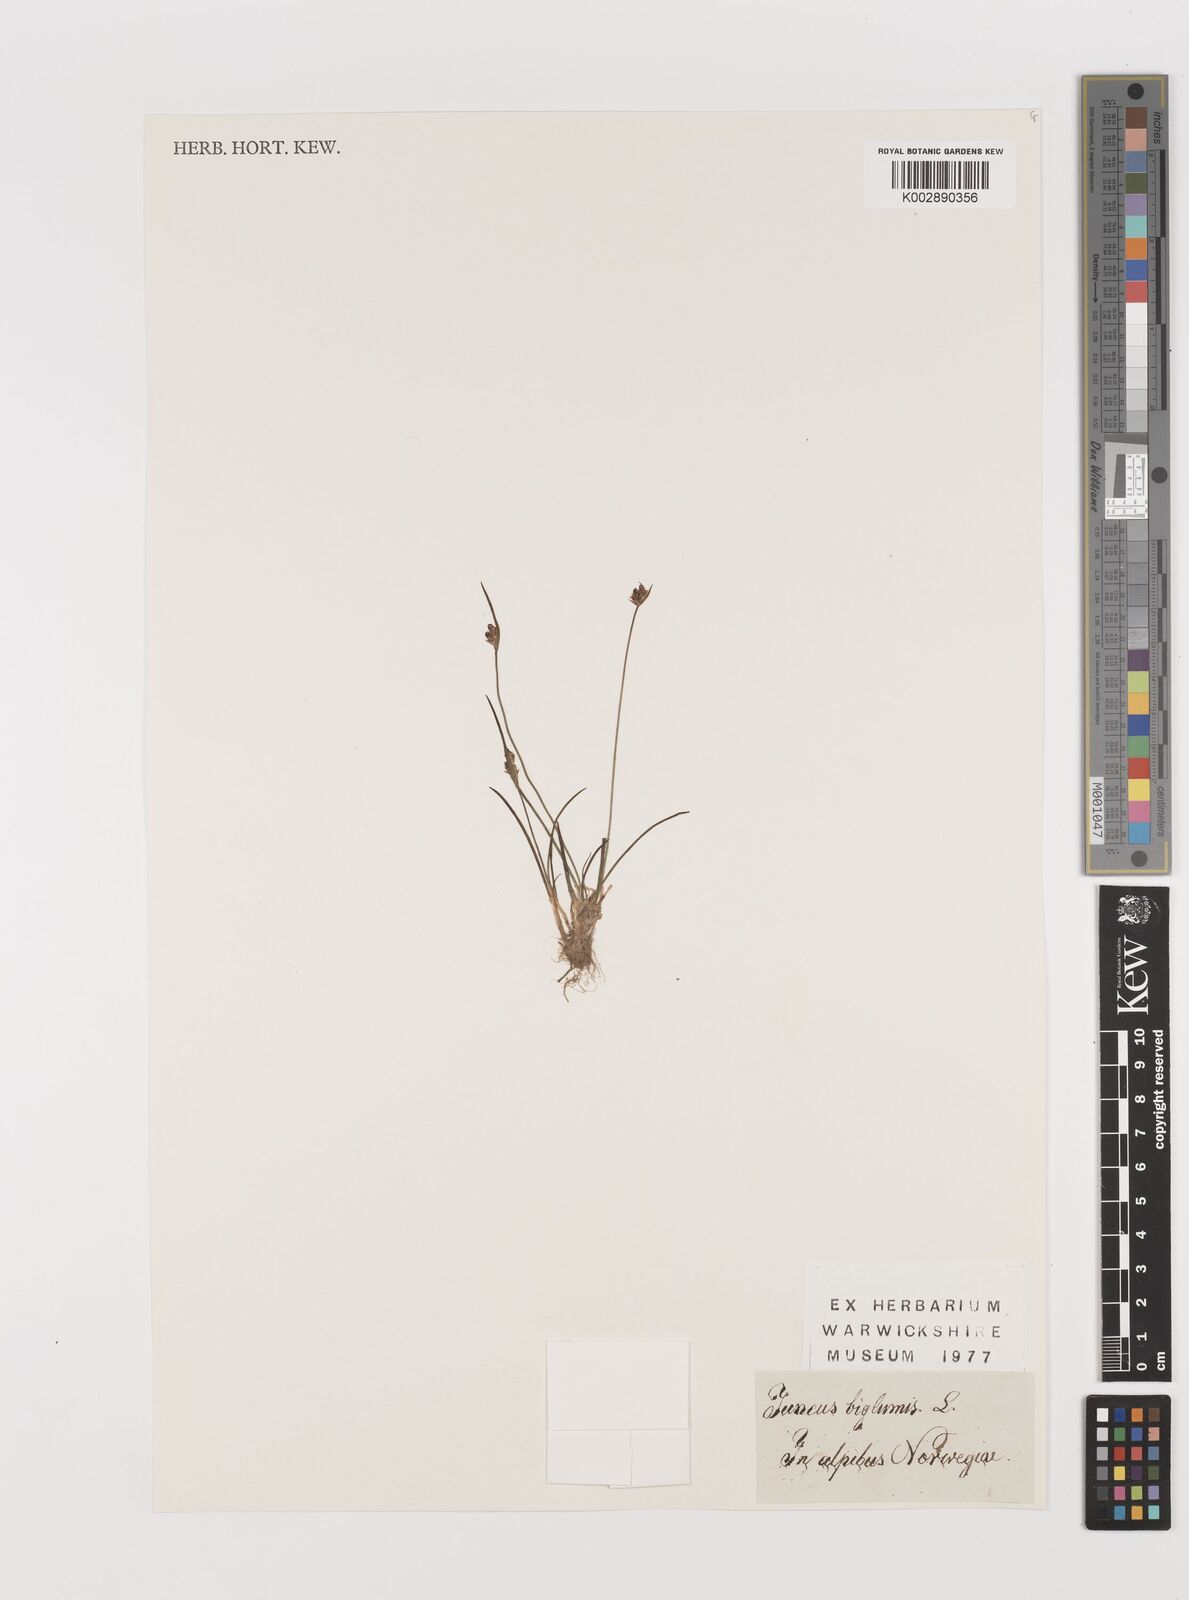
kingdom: Plantae
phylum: Tracheophyta
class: Liliopsida
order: Poales
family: Juncaceae
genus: Juncus
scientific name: Juncus biglumis
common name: Two-flowered rush
